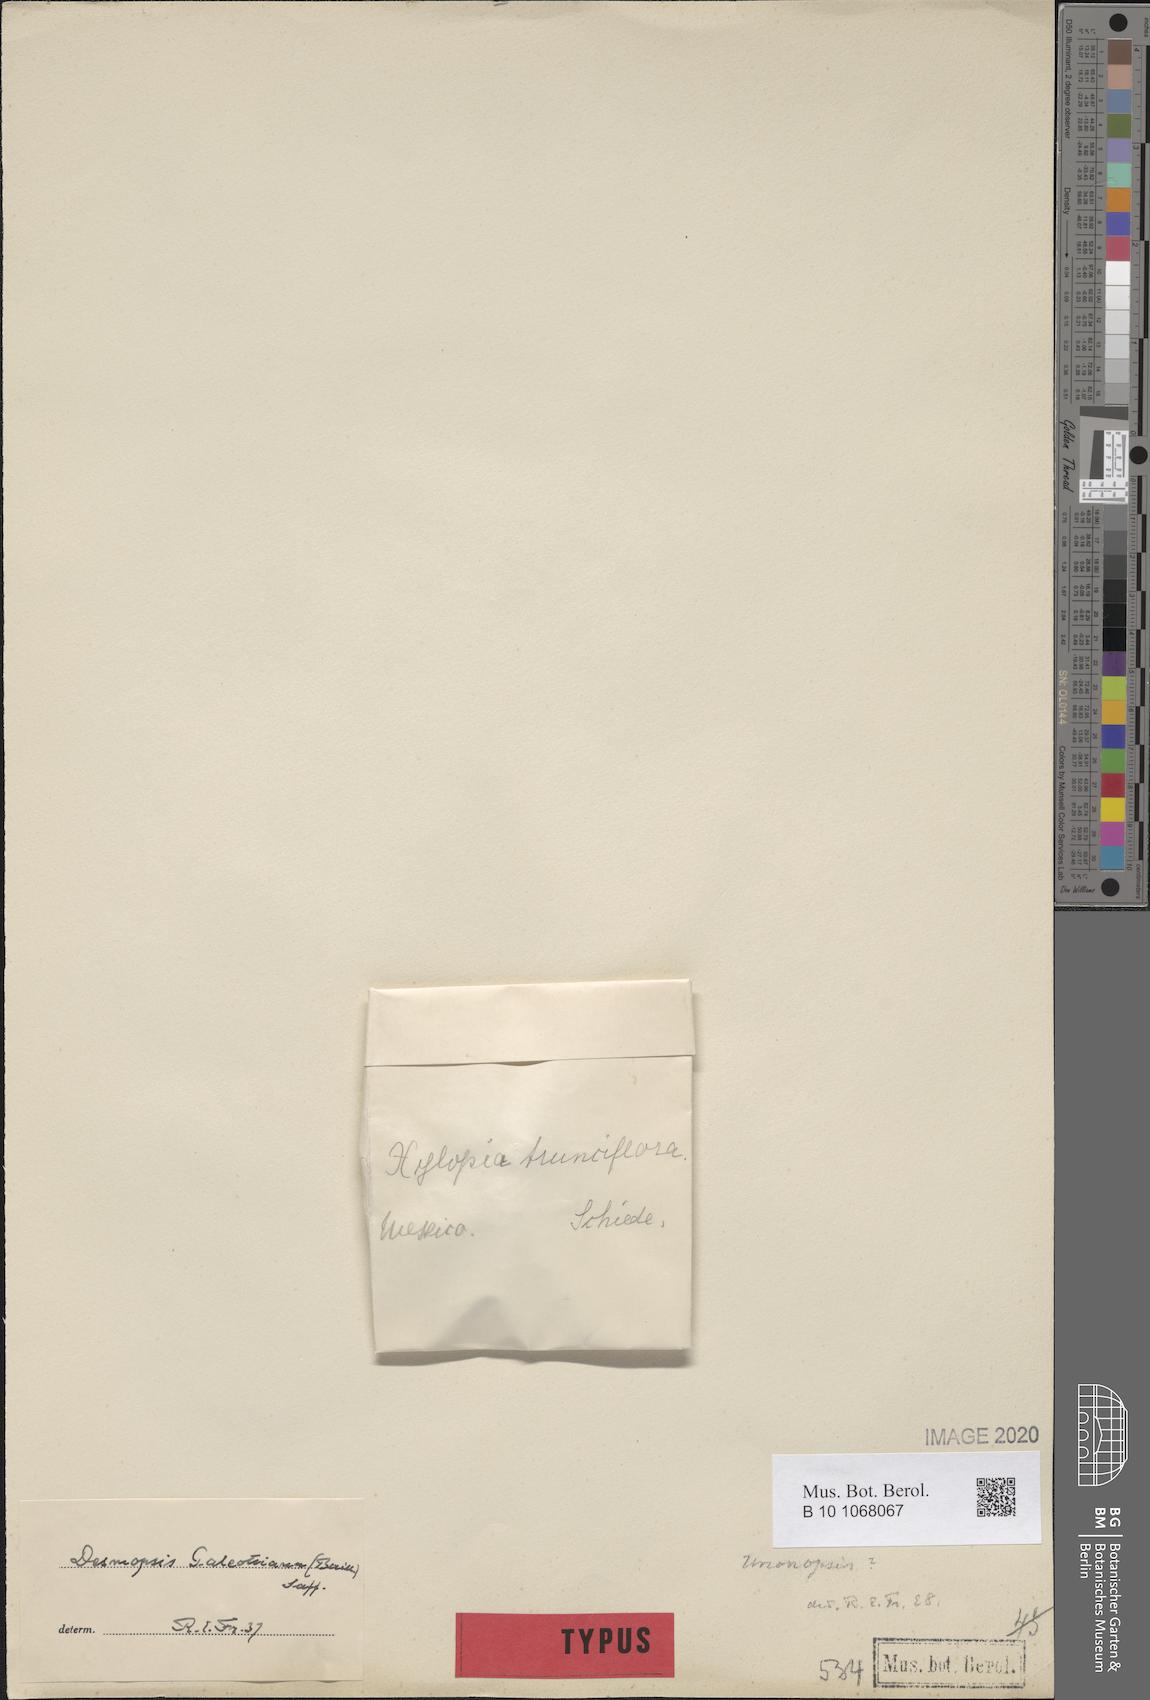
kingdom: Plantae
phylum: Tracheophyta
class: Magnoliopsida
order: Magnoliales
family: Annonaceae
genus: Desmopsis
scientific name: Desmopsis trunciflora
